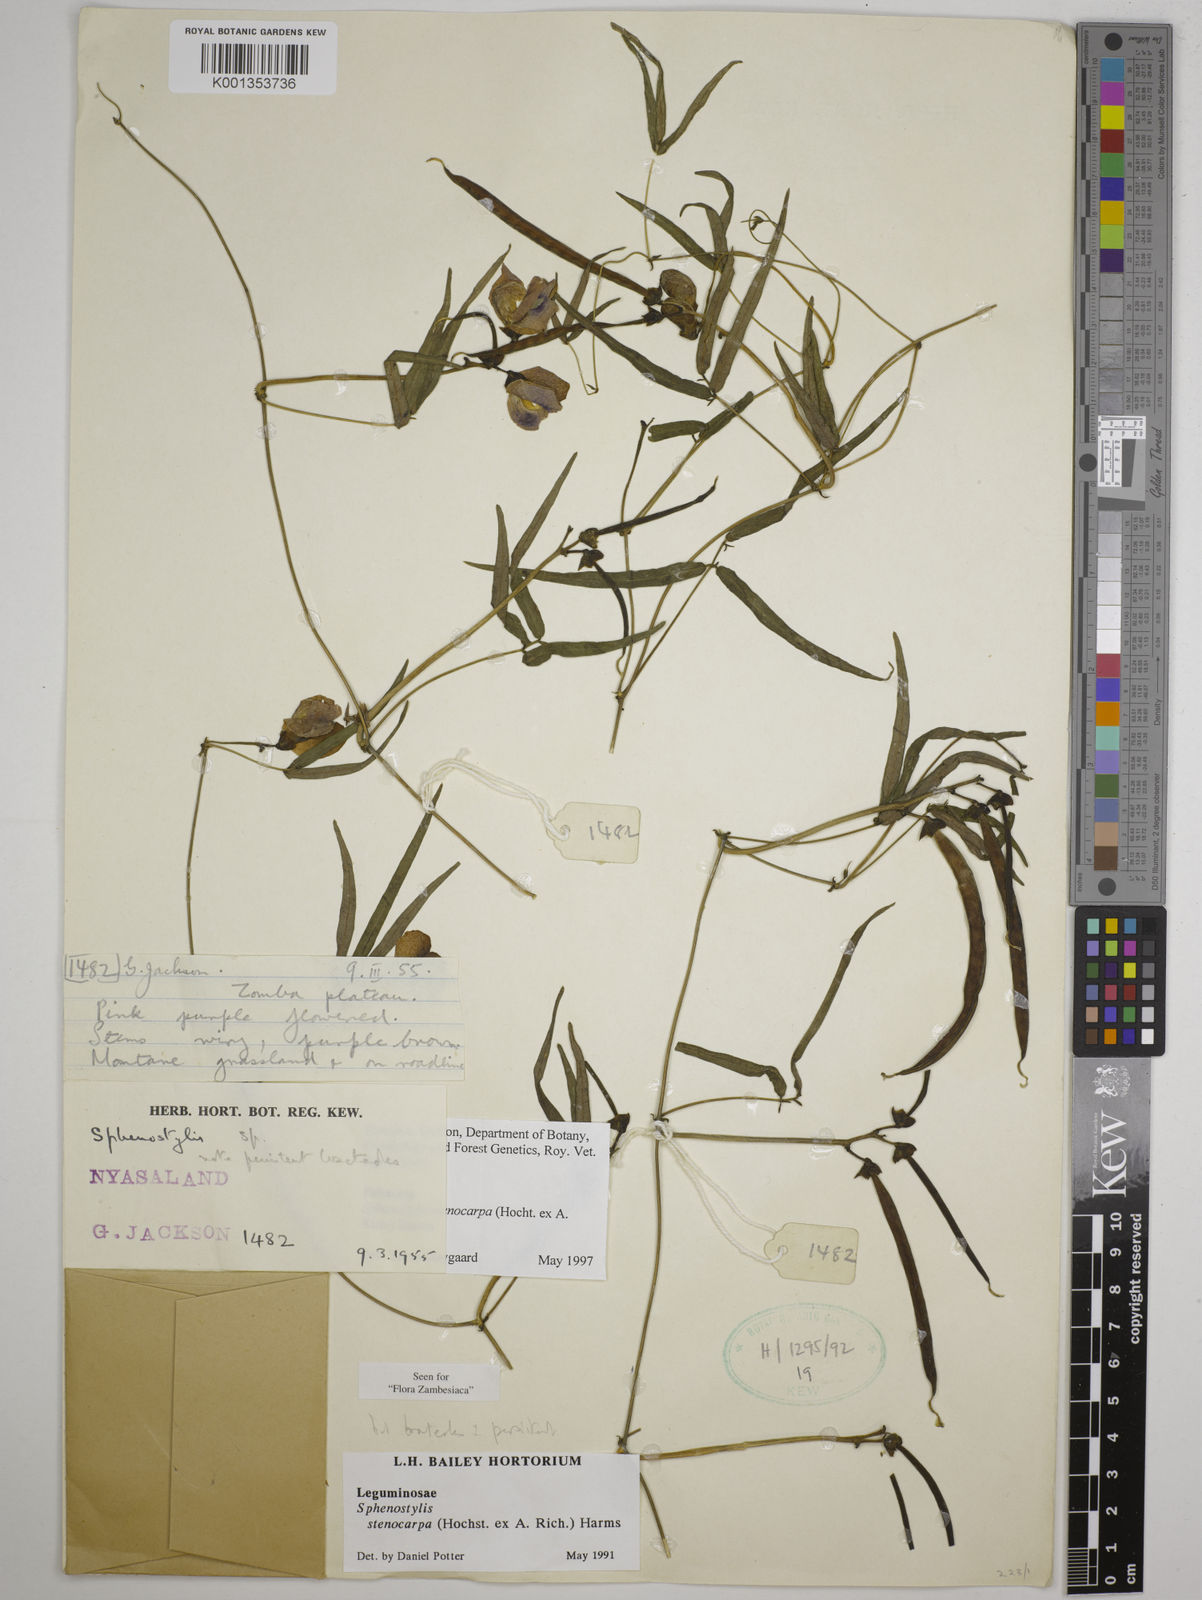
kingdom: Plantae
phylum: Tracheophyta
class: Magnoliopsida
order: Fabales
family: Fabaceae
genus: Sphenostylis
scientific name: Sphenostylis stenocarpa
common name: Yam-pea
